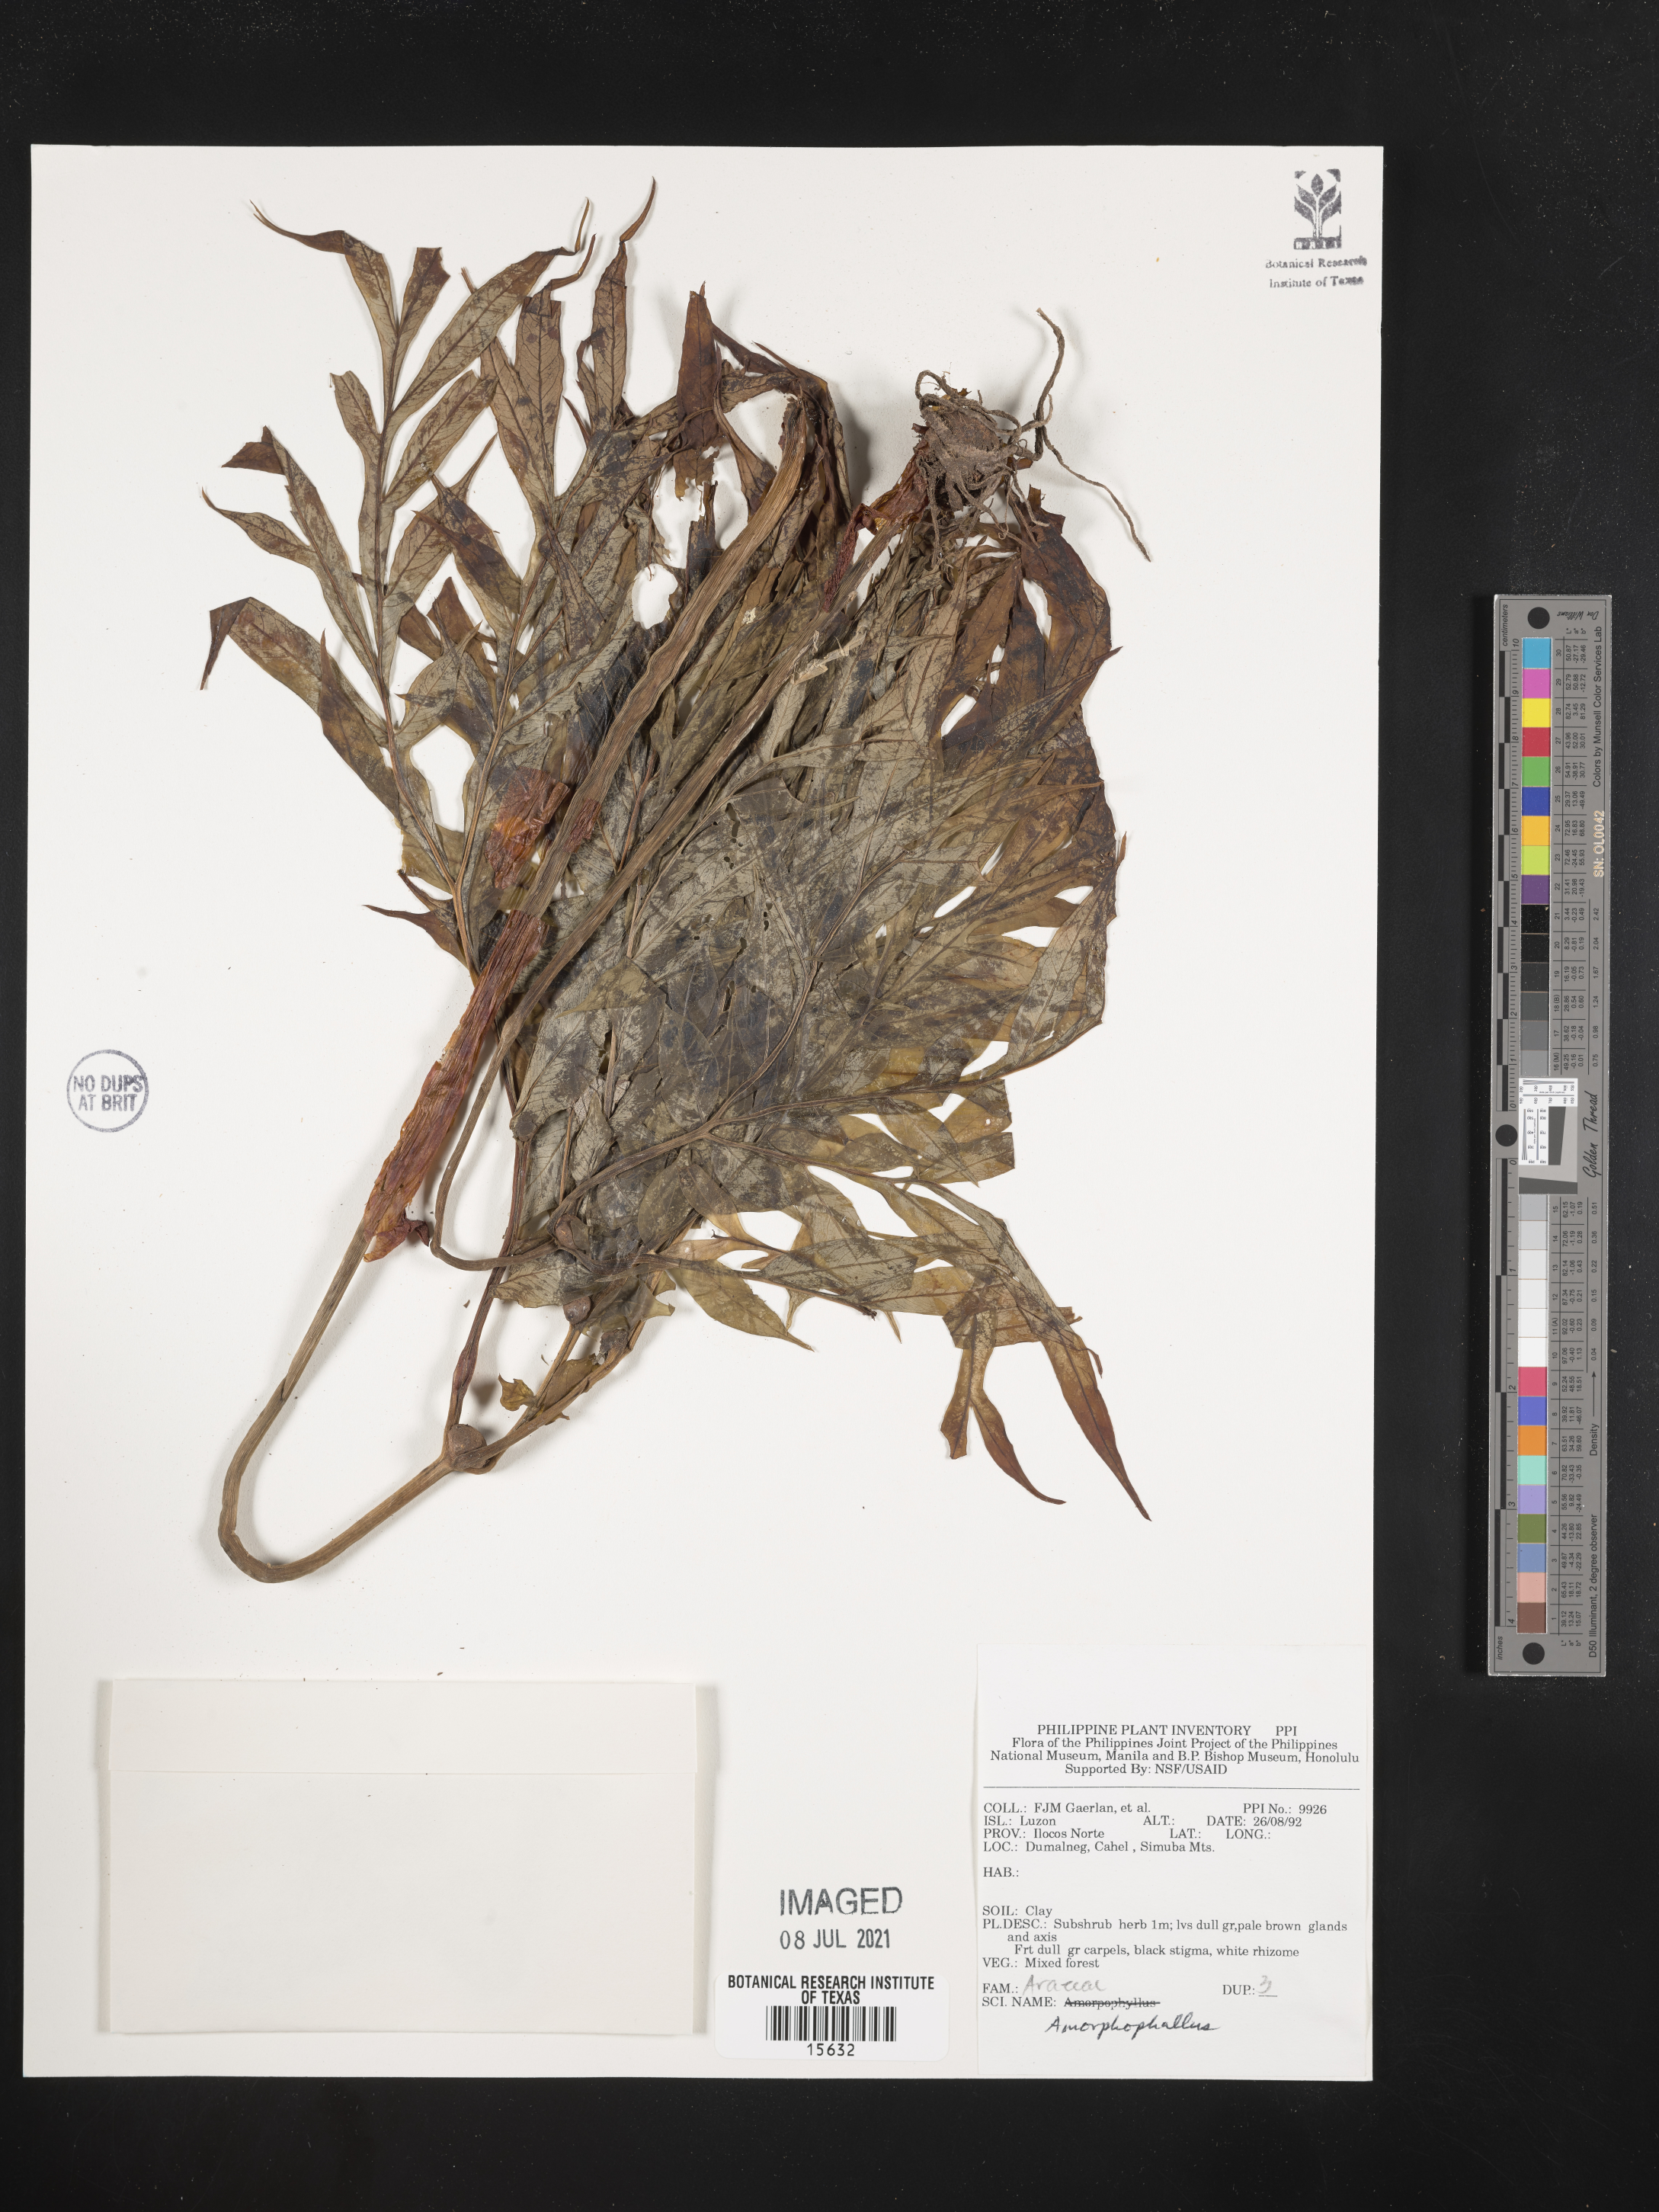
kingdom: Plantae
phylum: Tracheophyta
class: Liliopsida
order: Alismatales
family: Araceae
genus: Amorphophallus
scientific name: Amorphophallus
